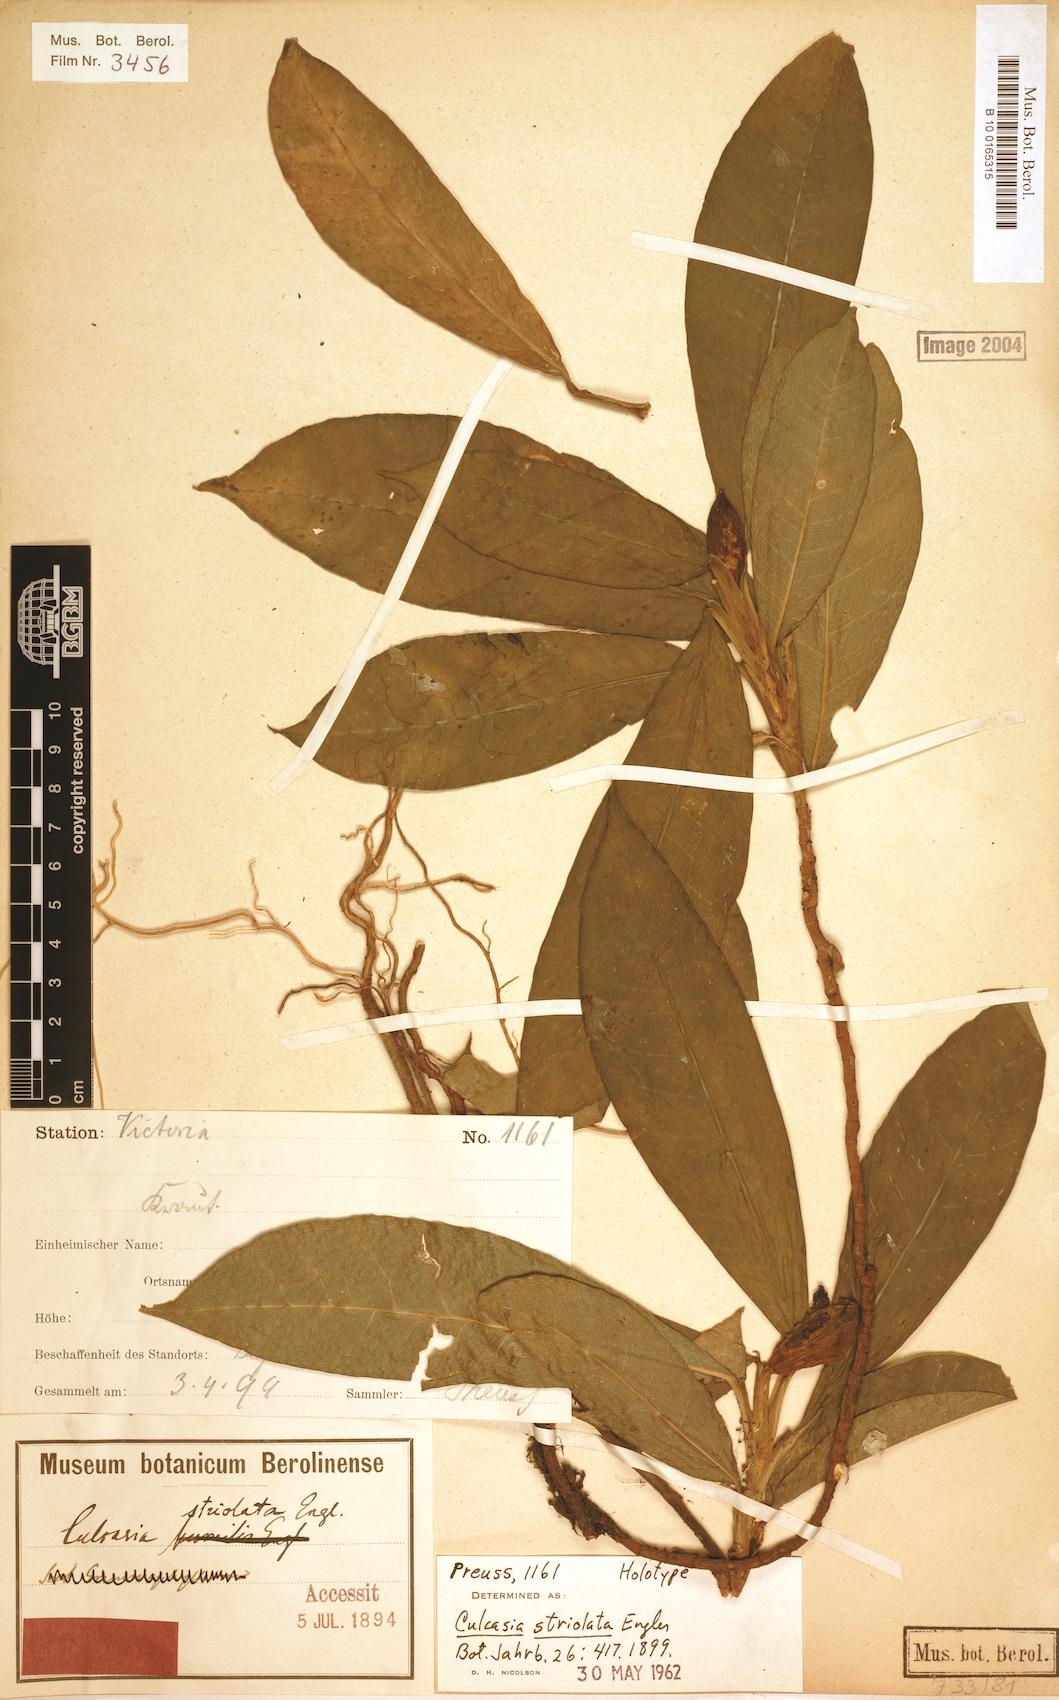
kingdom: Plantae
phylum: Tracheophyta
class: Liliopsida
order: Alismatales
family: Araceae
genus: Culcasia
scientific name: Culcasia striolata
